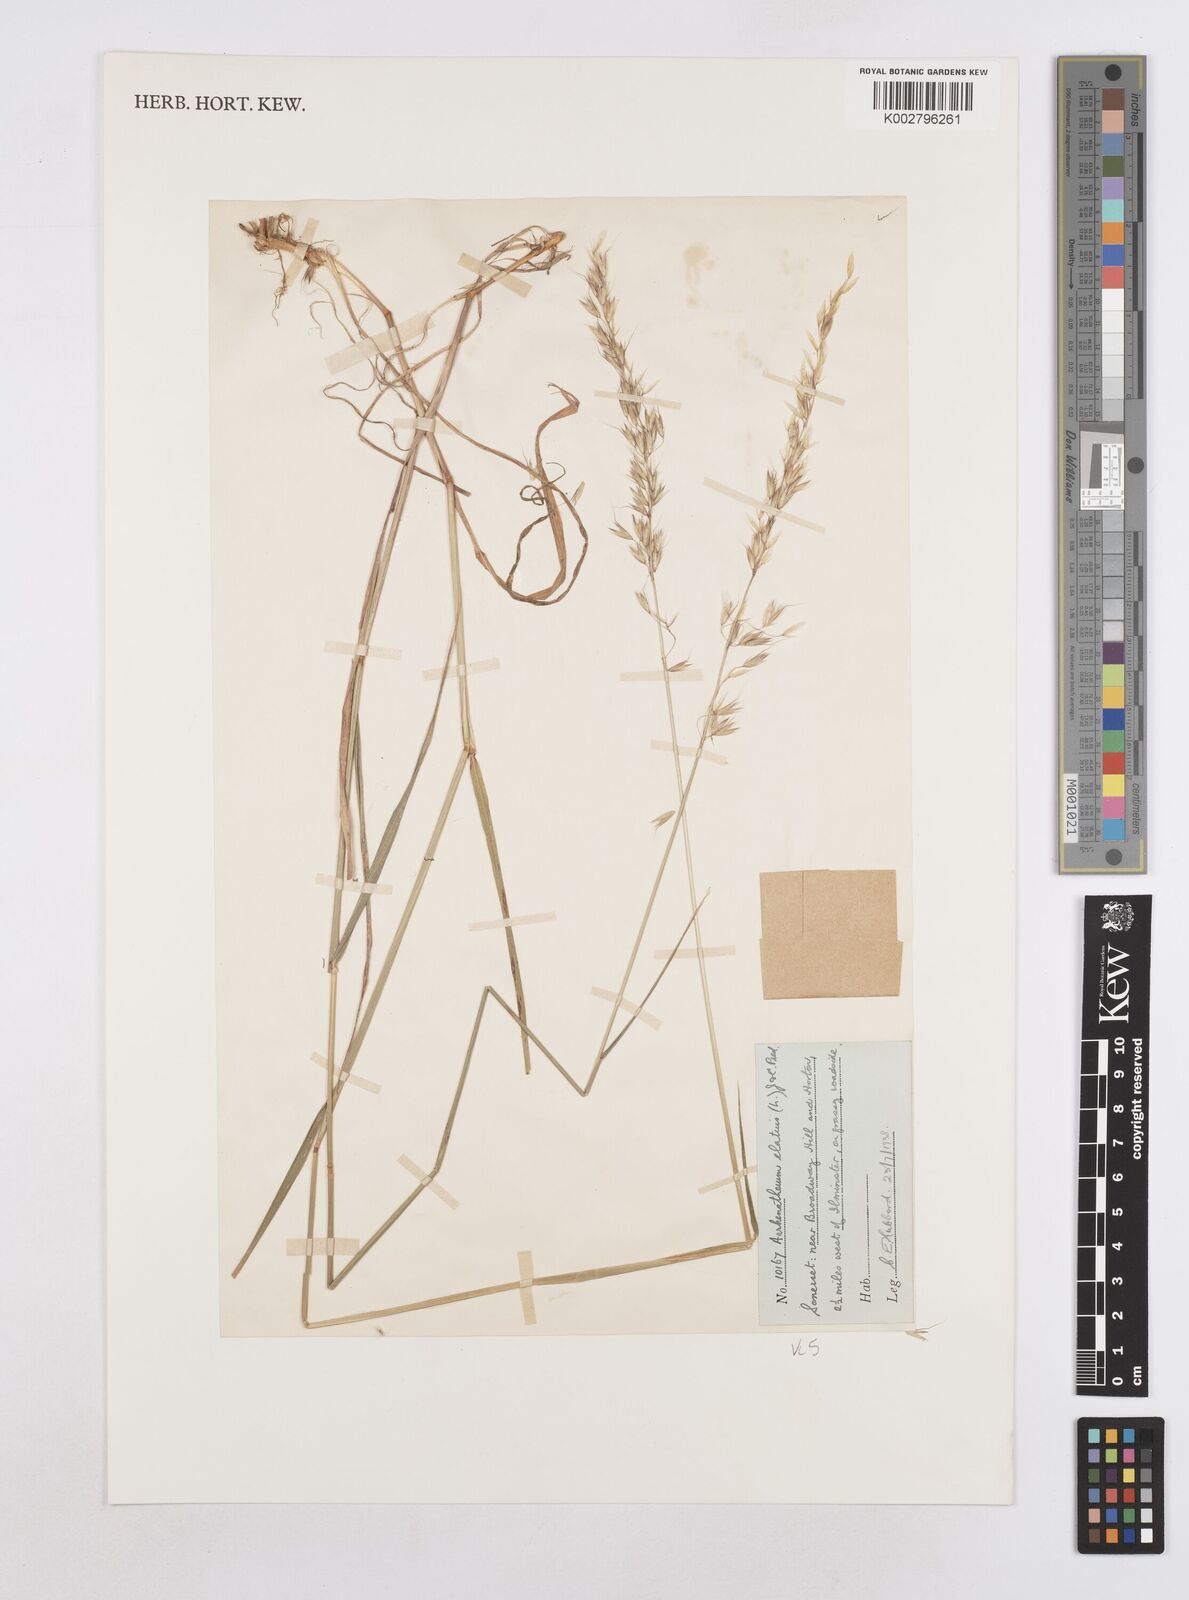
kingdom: Plantae
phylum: Tracheophyta
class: Liliopsida
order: Poales
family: Poaceae
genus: Arrhenatherum
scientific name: Arrhenatherum elatius
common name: Tall oatgrass
